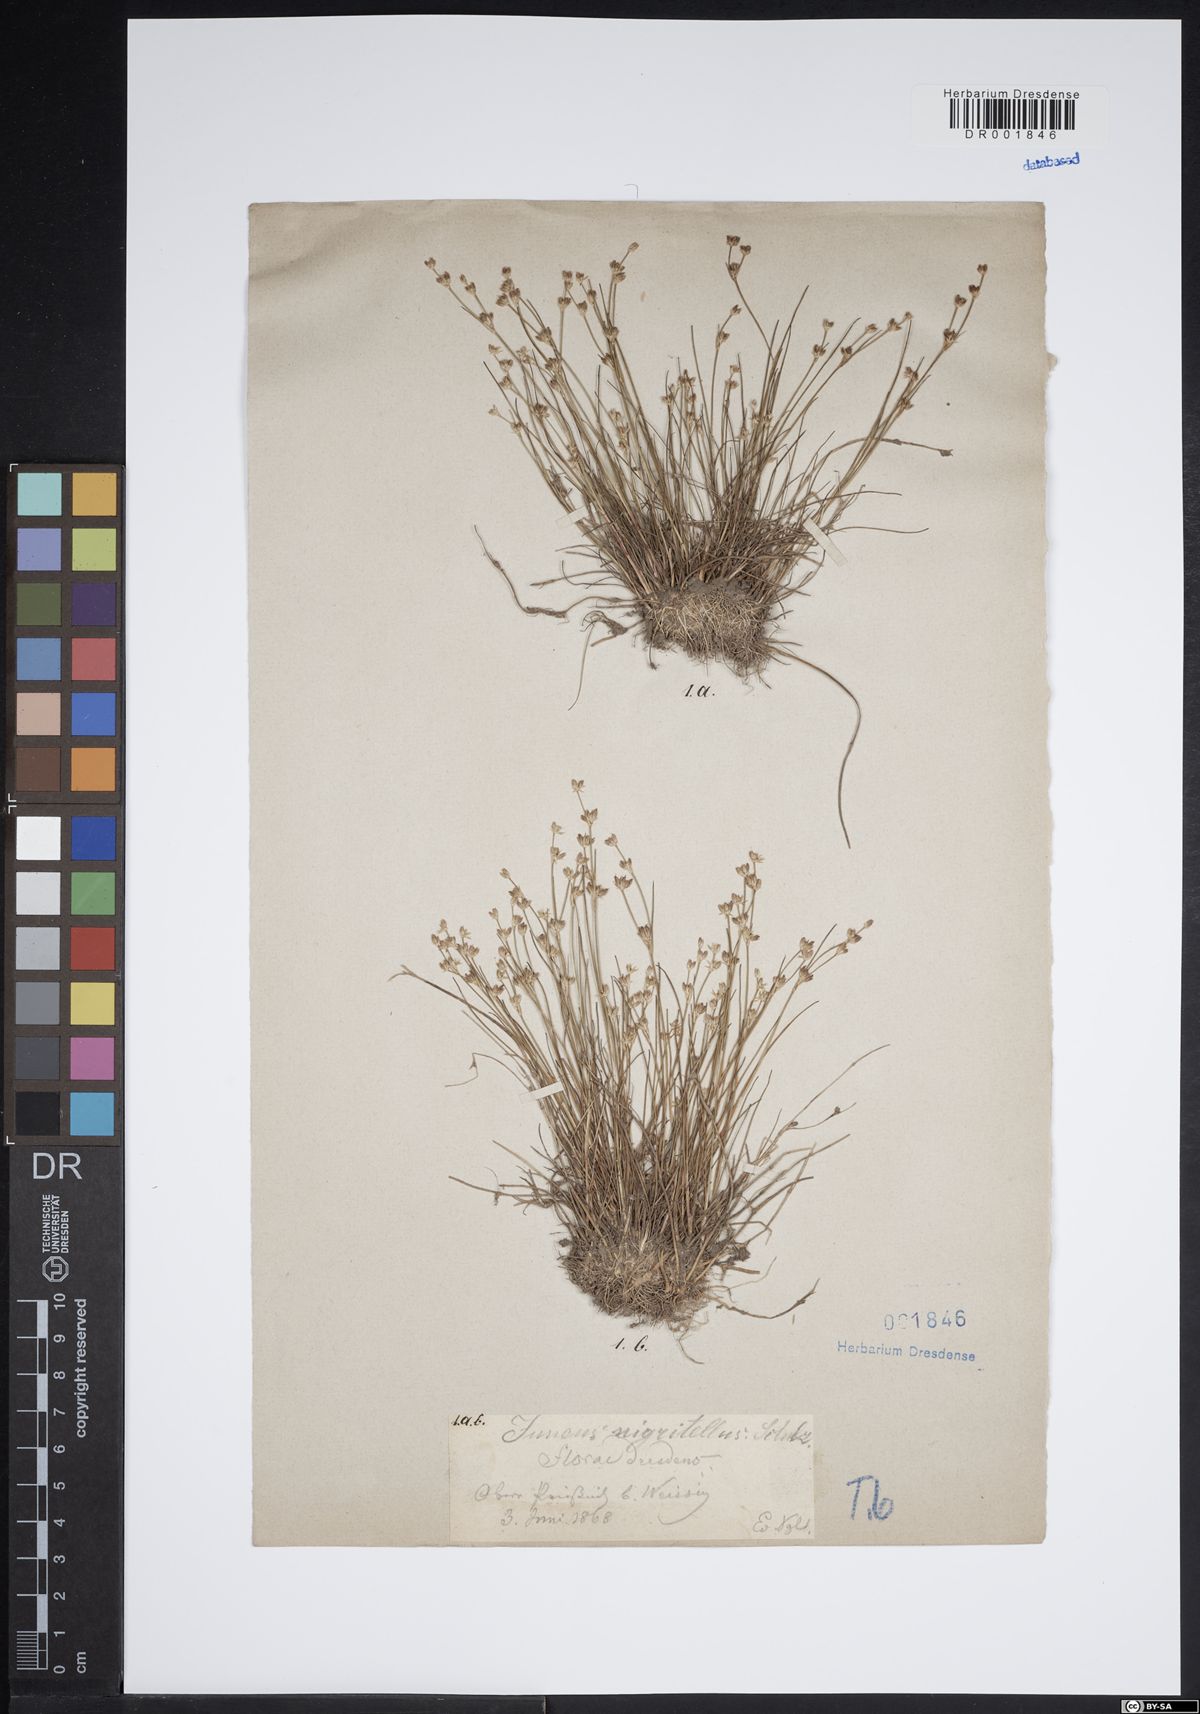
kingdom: Plantae
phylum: Tracheophyta
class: Liliopsida
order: Poales
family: Juncaceae
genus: Juncus
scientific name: Juncus bulbosus
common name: Bulbous rush
